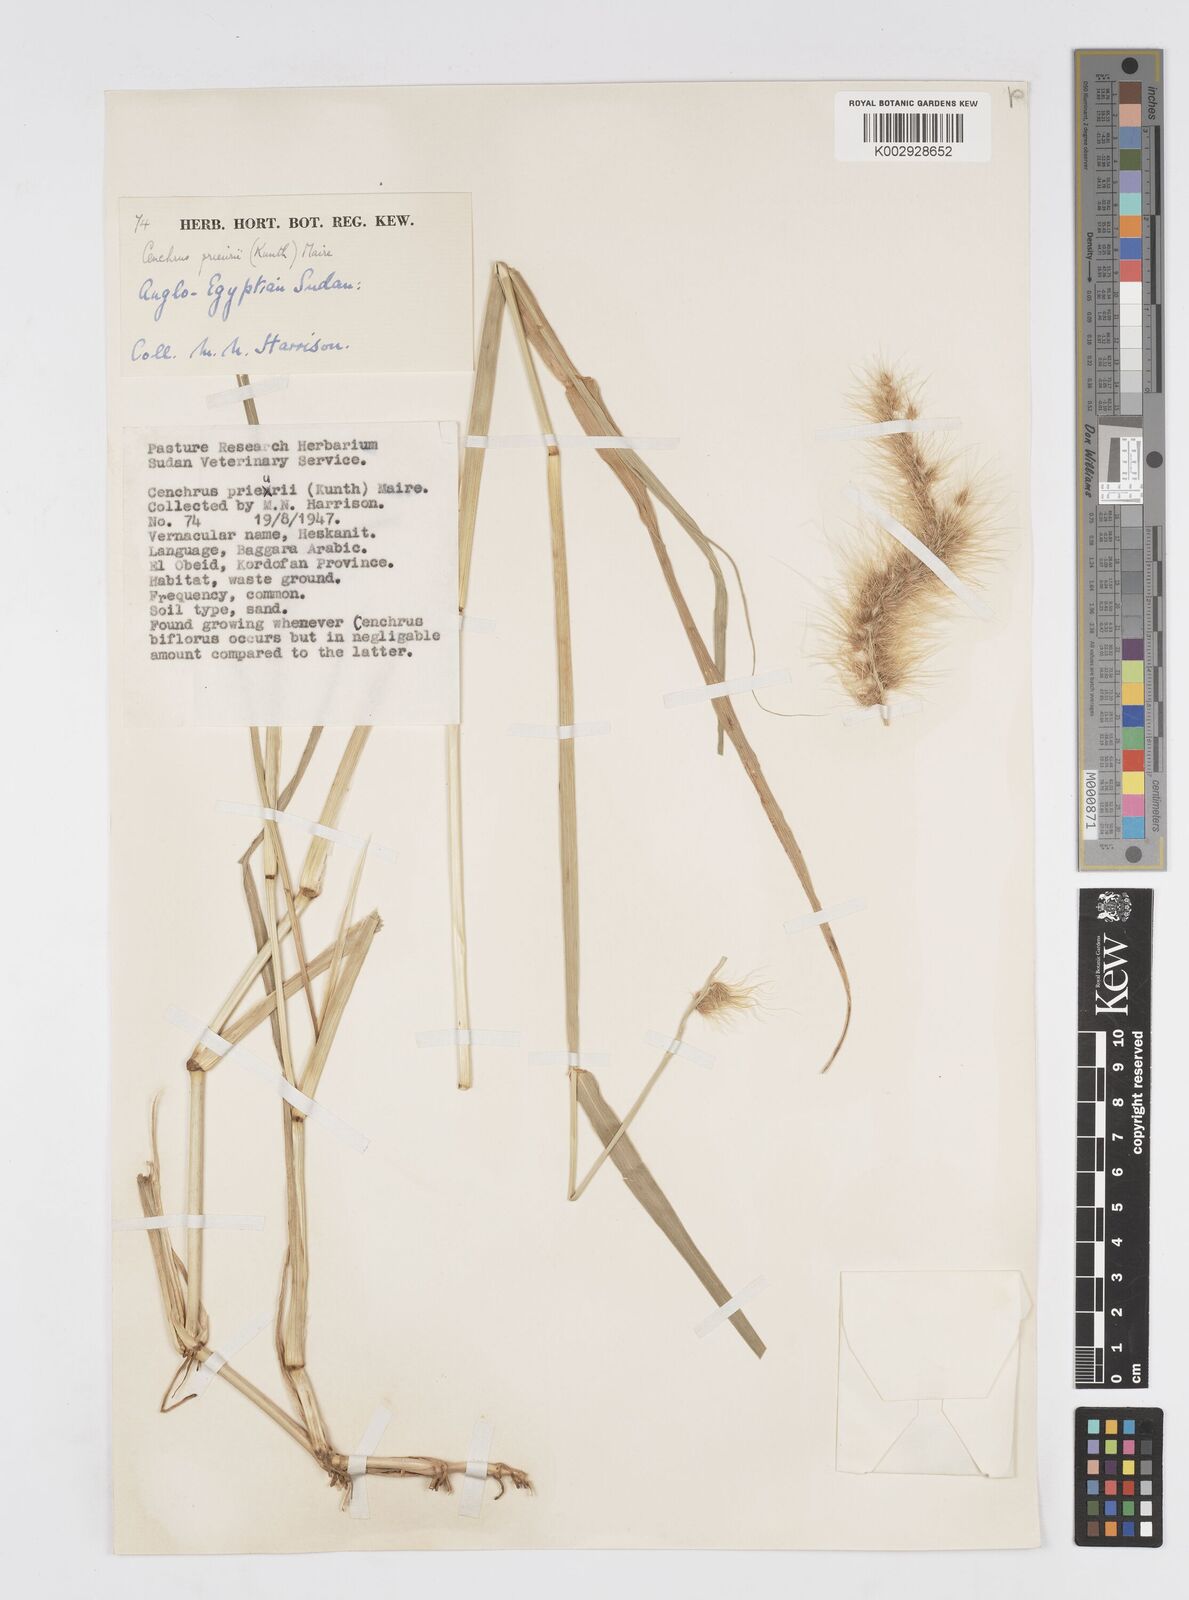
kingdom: Plantae
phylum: Tracheophyta
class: Liliopsida
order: Poales
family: Poaceae
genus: Cenchrus
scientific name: Cenchrus prieurii
